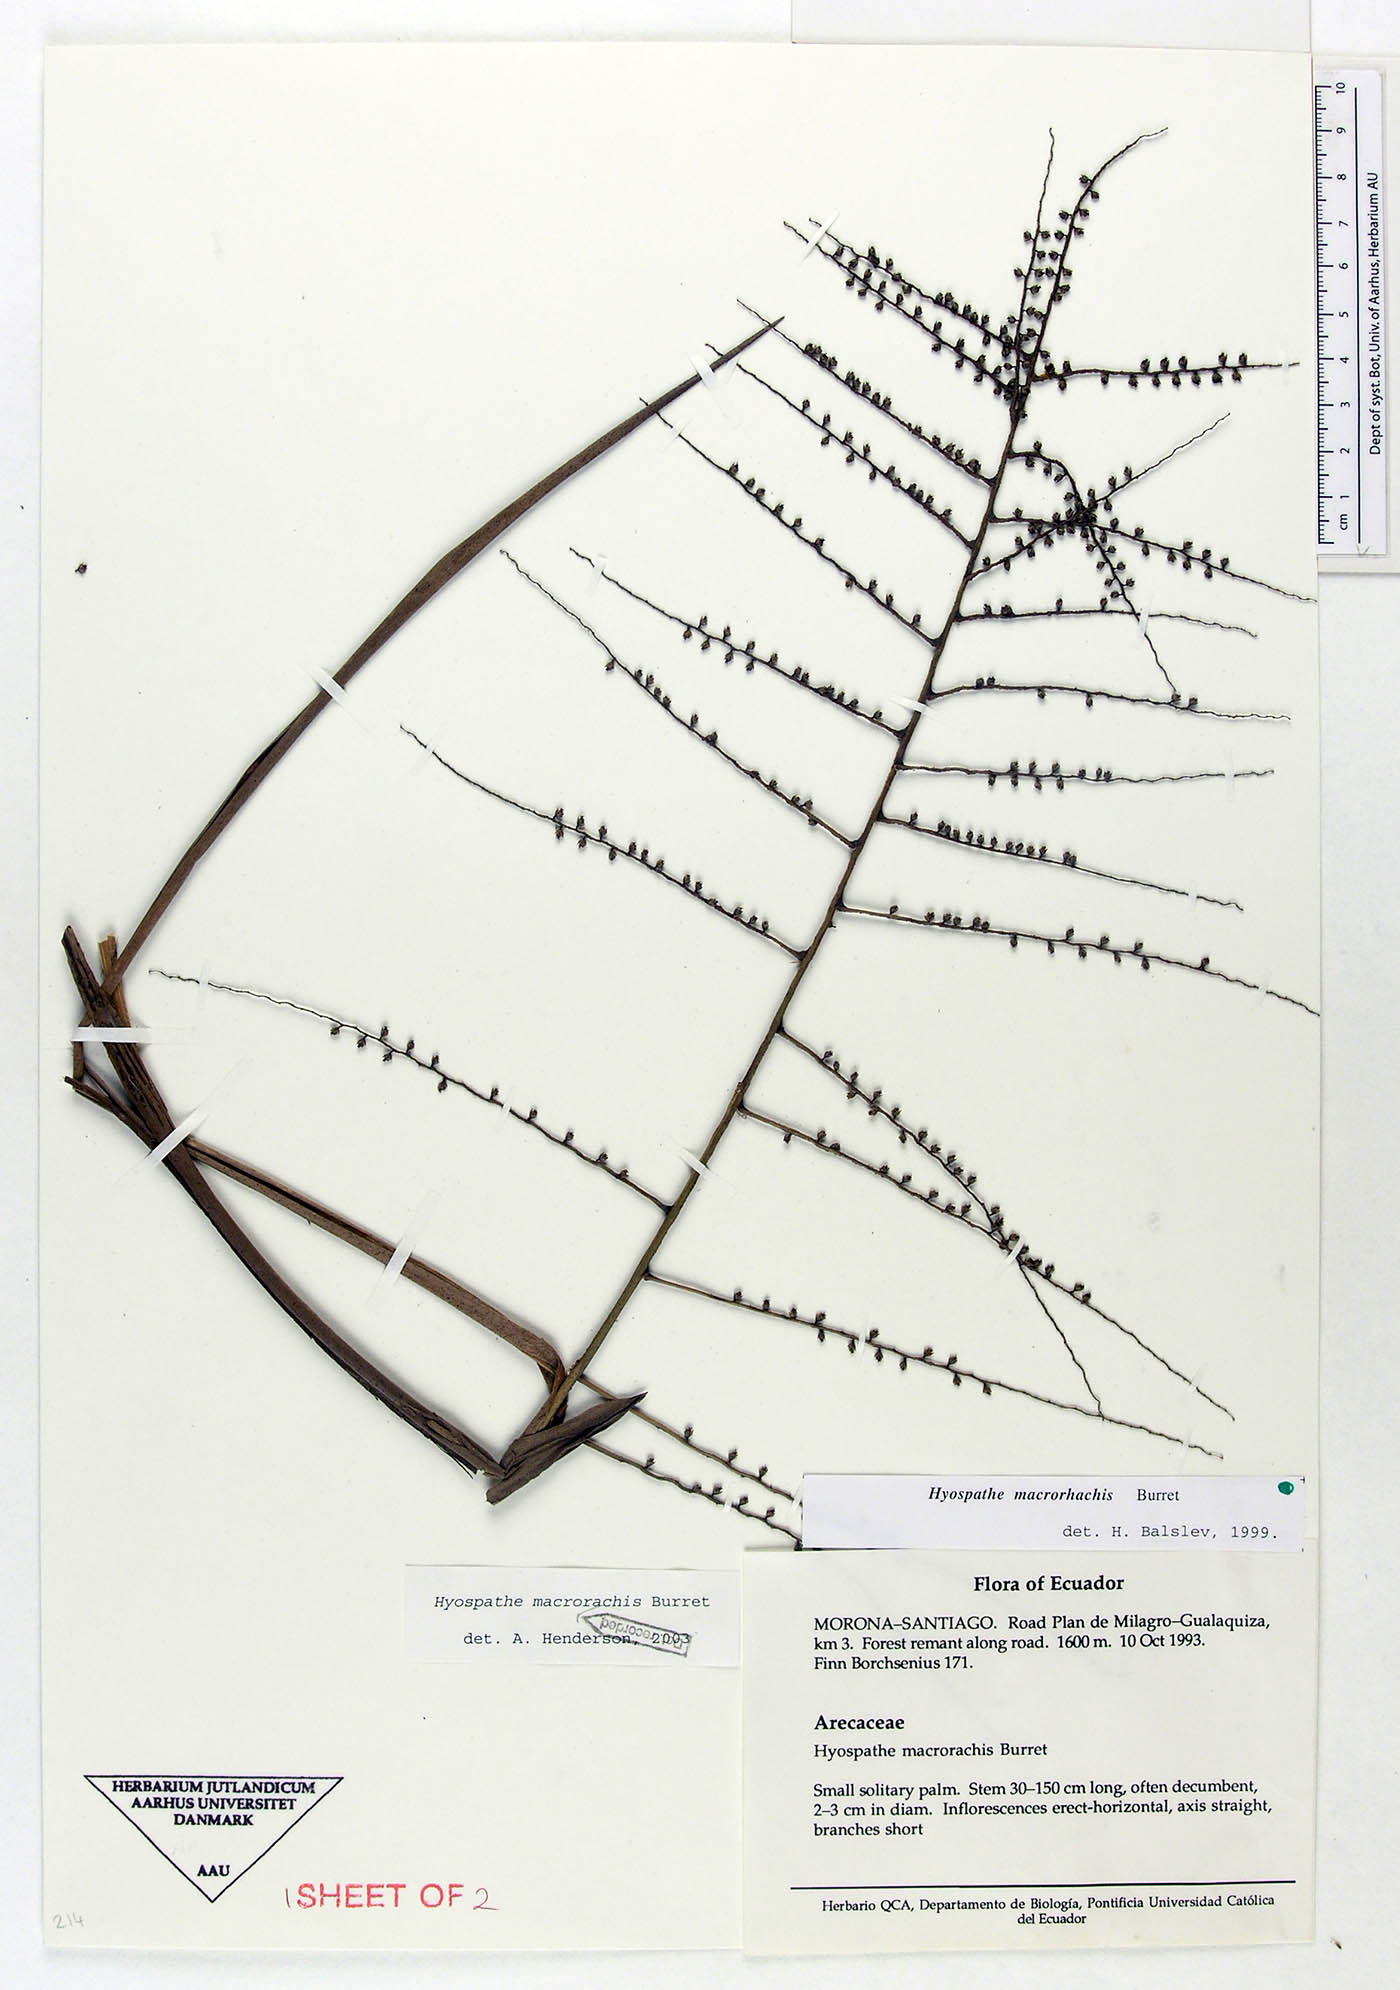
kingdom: Plantae
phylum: Tracheophyta
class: Liliopsida
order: Arecales
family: Arecaceae
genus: Hyospathe
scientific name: Hyospathe macrorhachis
